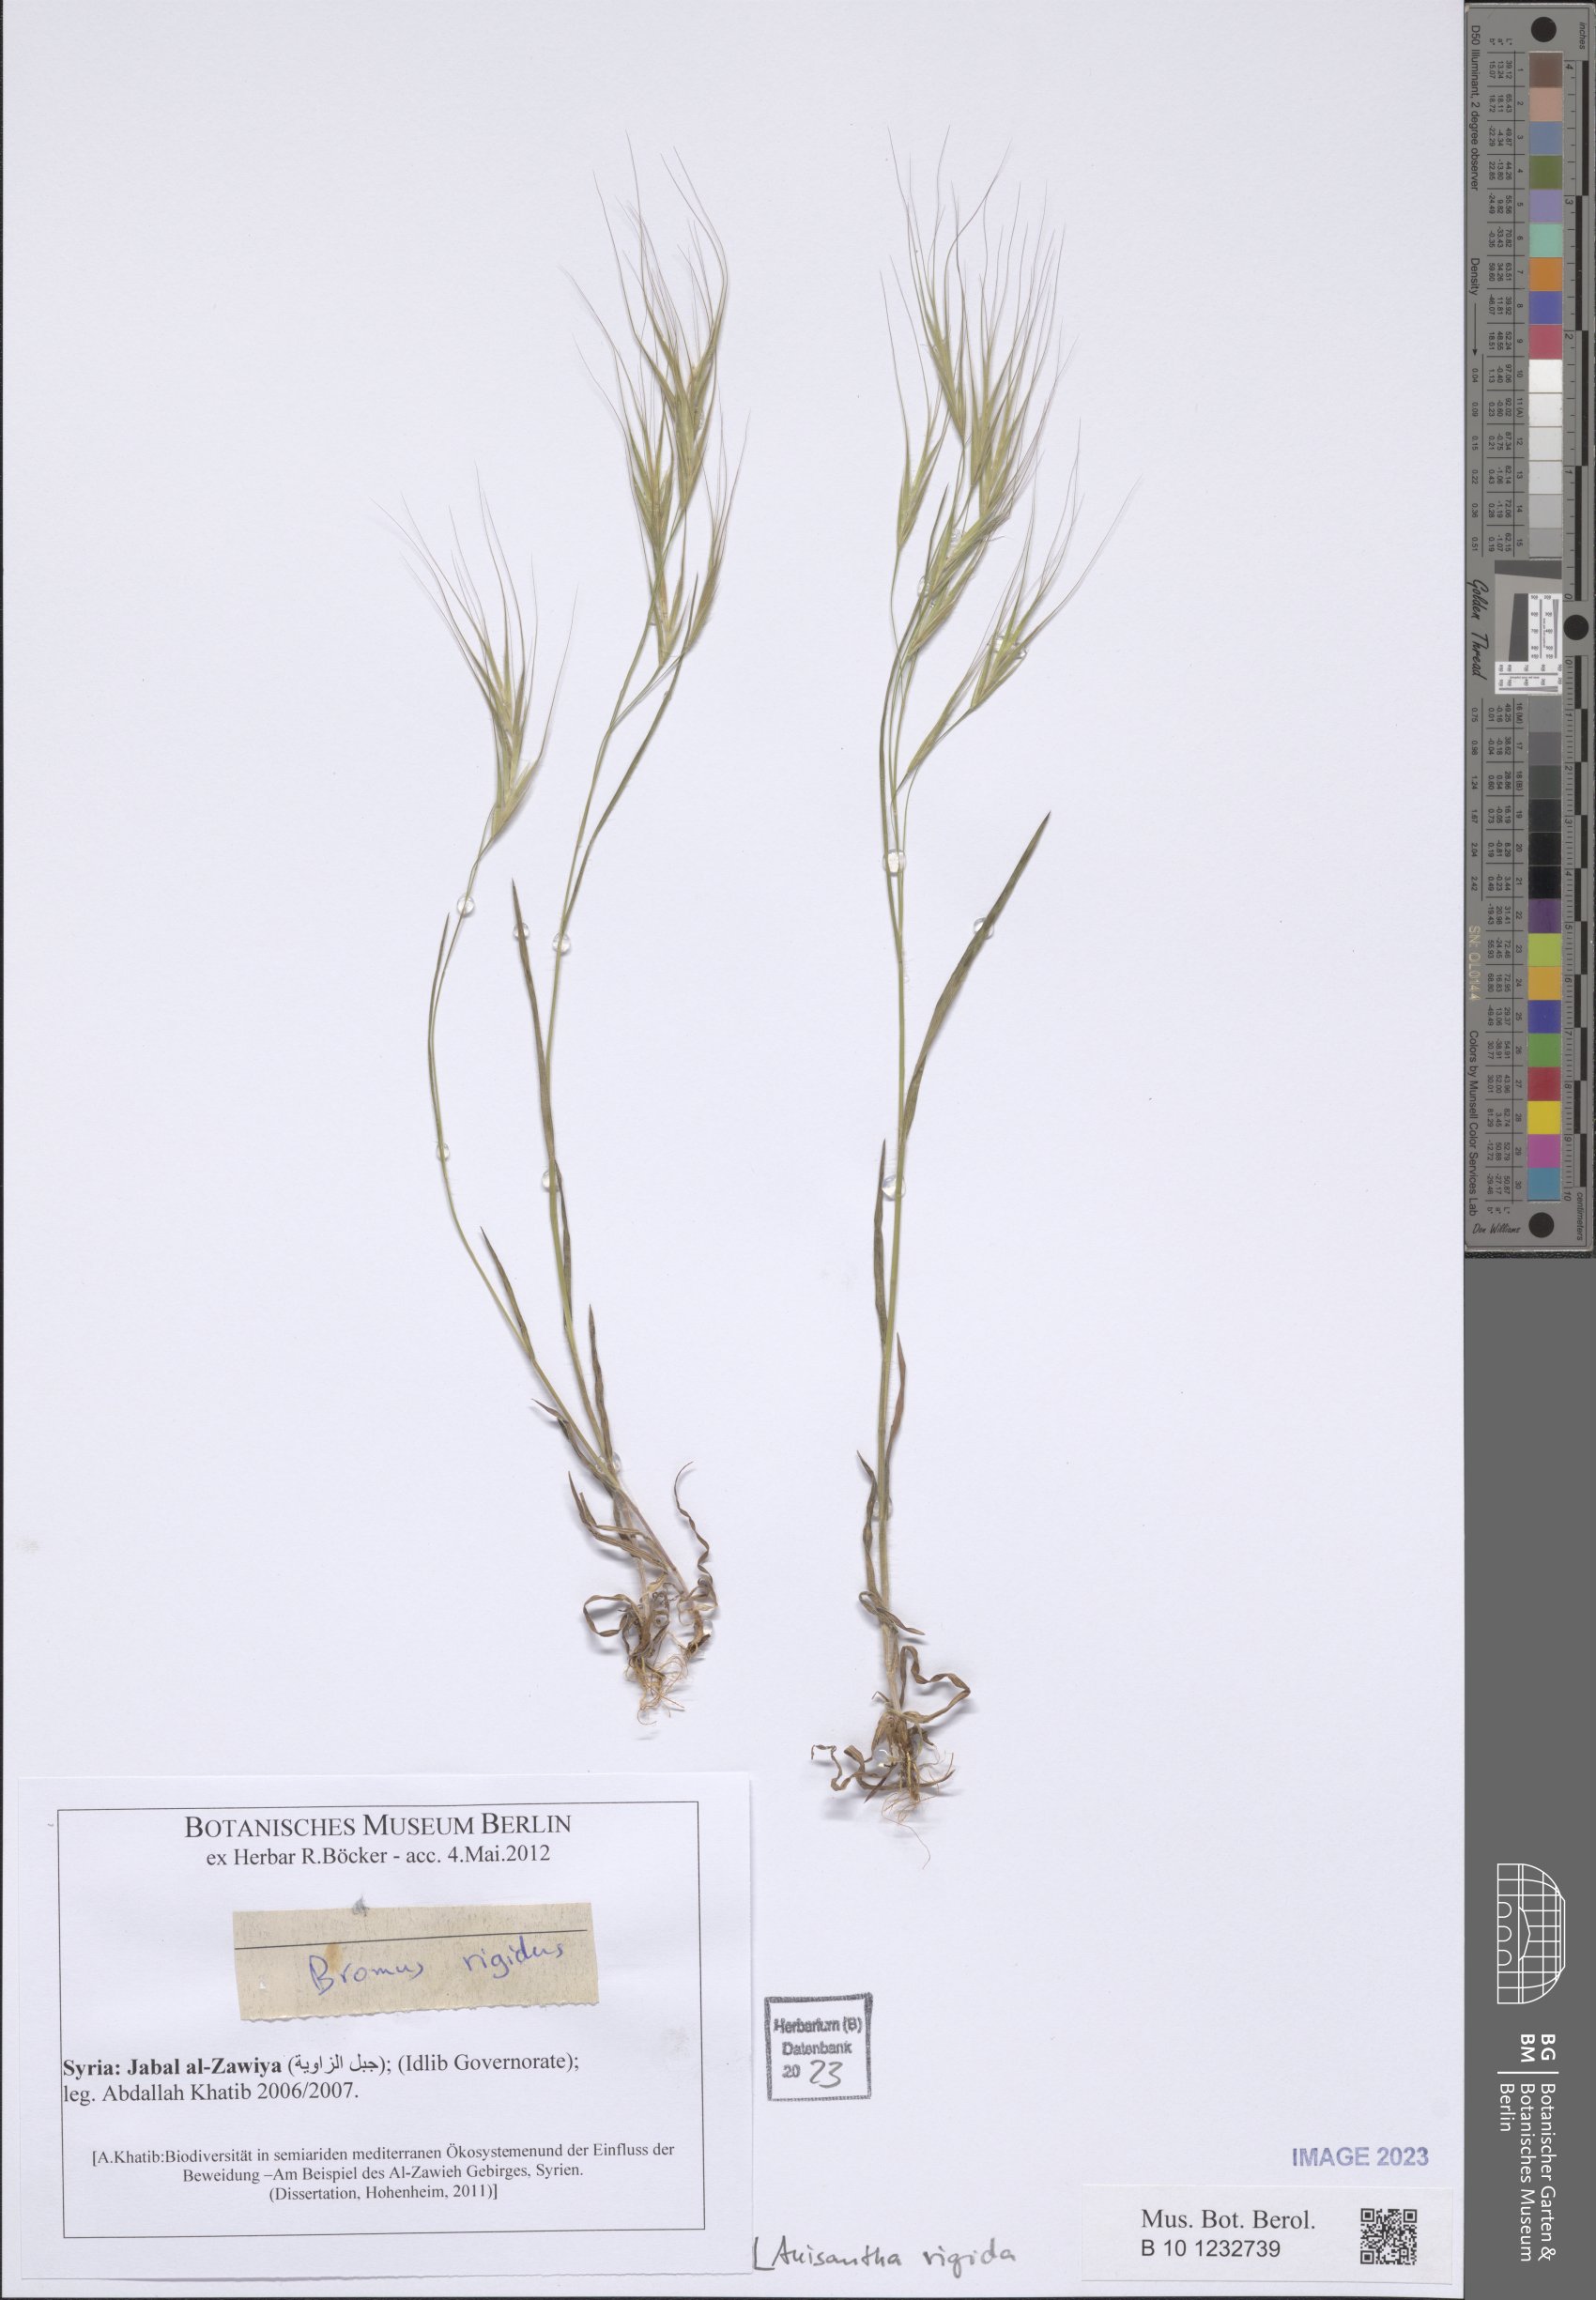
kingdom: Plantae
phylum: Tracheophyta
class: Liliopsida
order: Poales
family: Poaceae
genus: Bromus
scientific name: Bromus rigidus
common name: Ripgut brome
